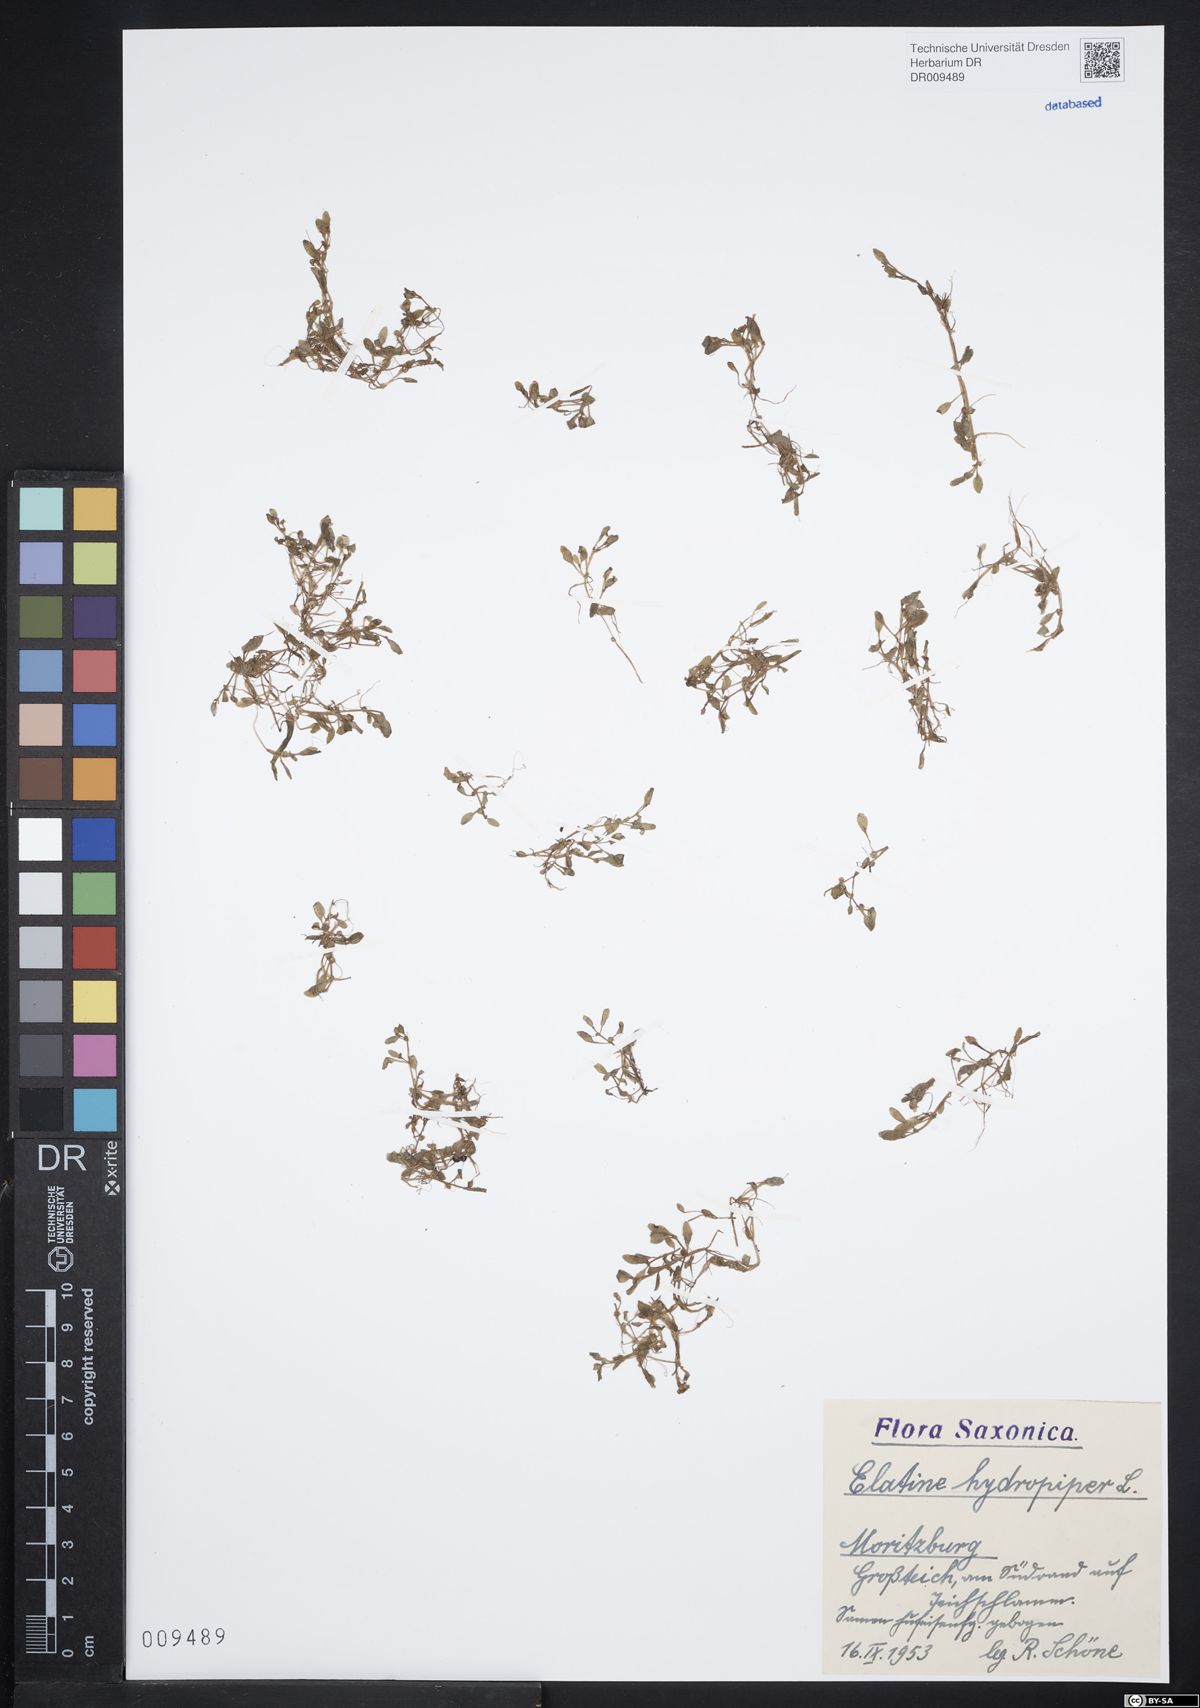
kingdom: Plantae
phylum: Tracheophyta
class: Magnoliopsida
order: Malpighiales
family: Elatinaceae
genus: Elatine
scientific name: Elatine hydropiper
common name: Eight-stamened waterwort
